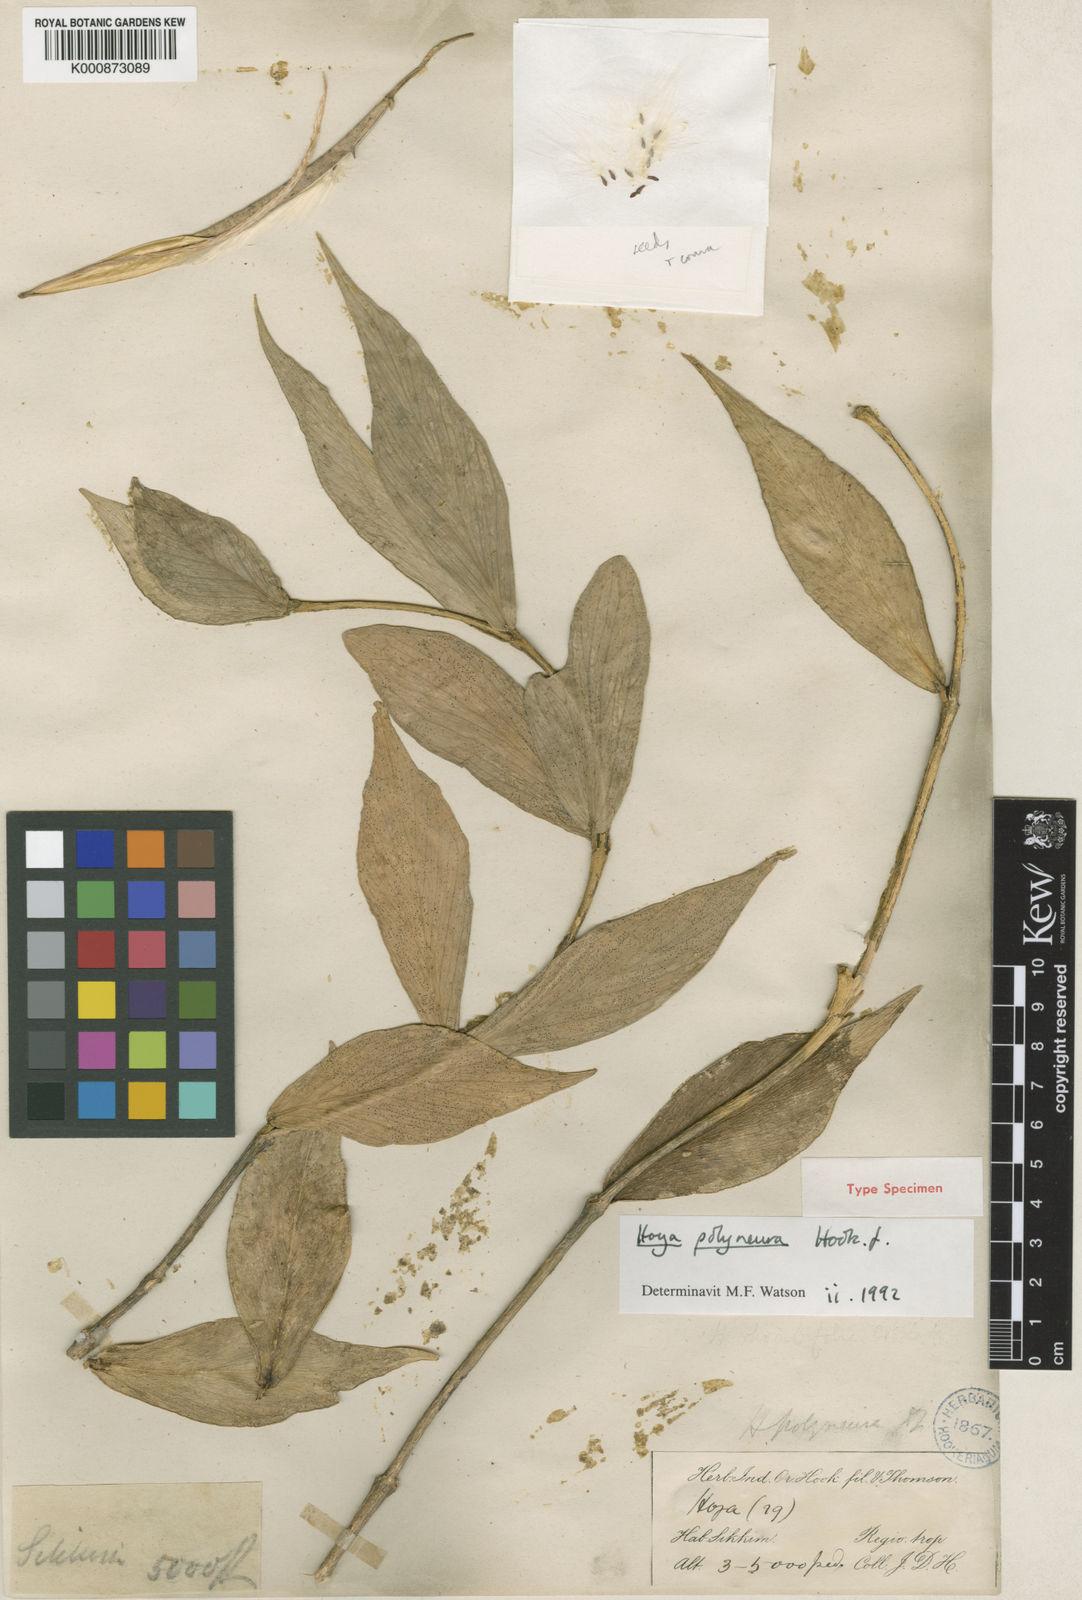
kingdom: Plantae
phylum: Tracheophyta
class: Magnoliopsida
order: Gentianales
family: Apocynaceae
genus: Hoya
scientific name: Hoya polyneura
